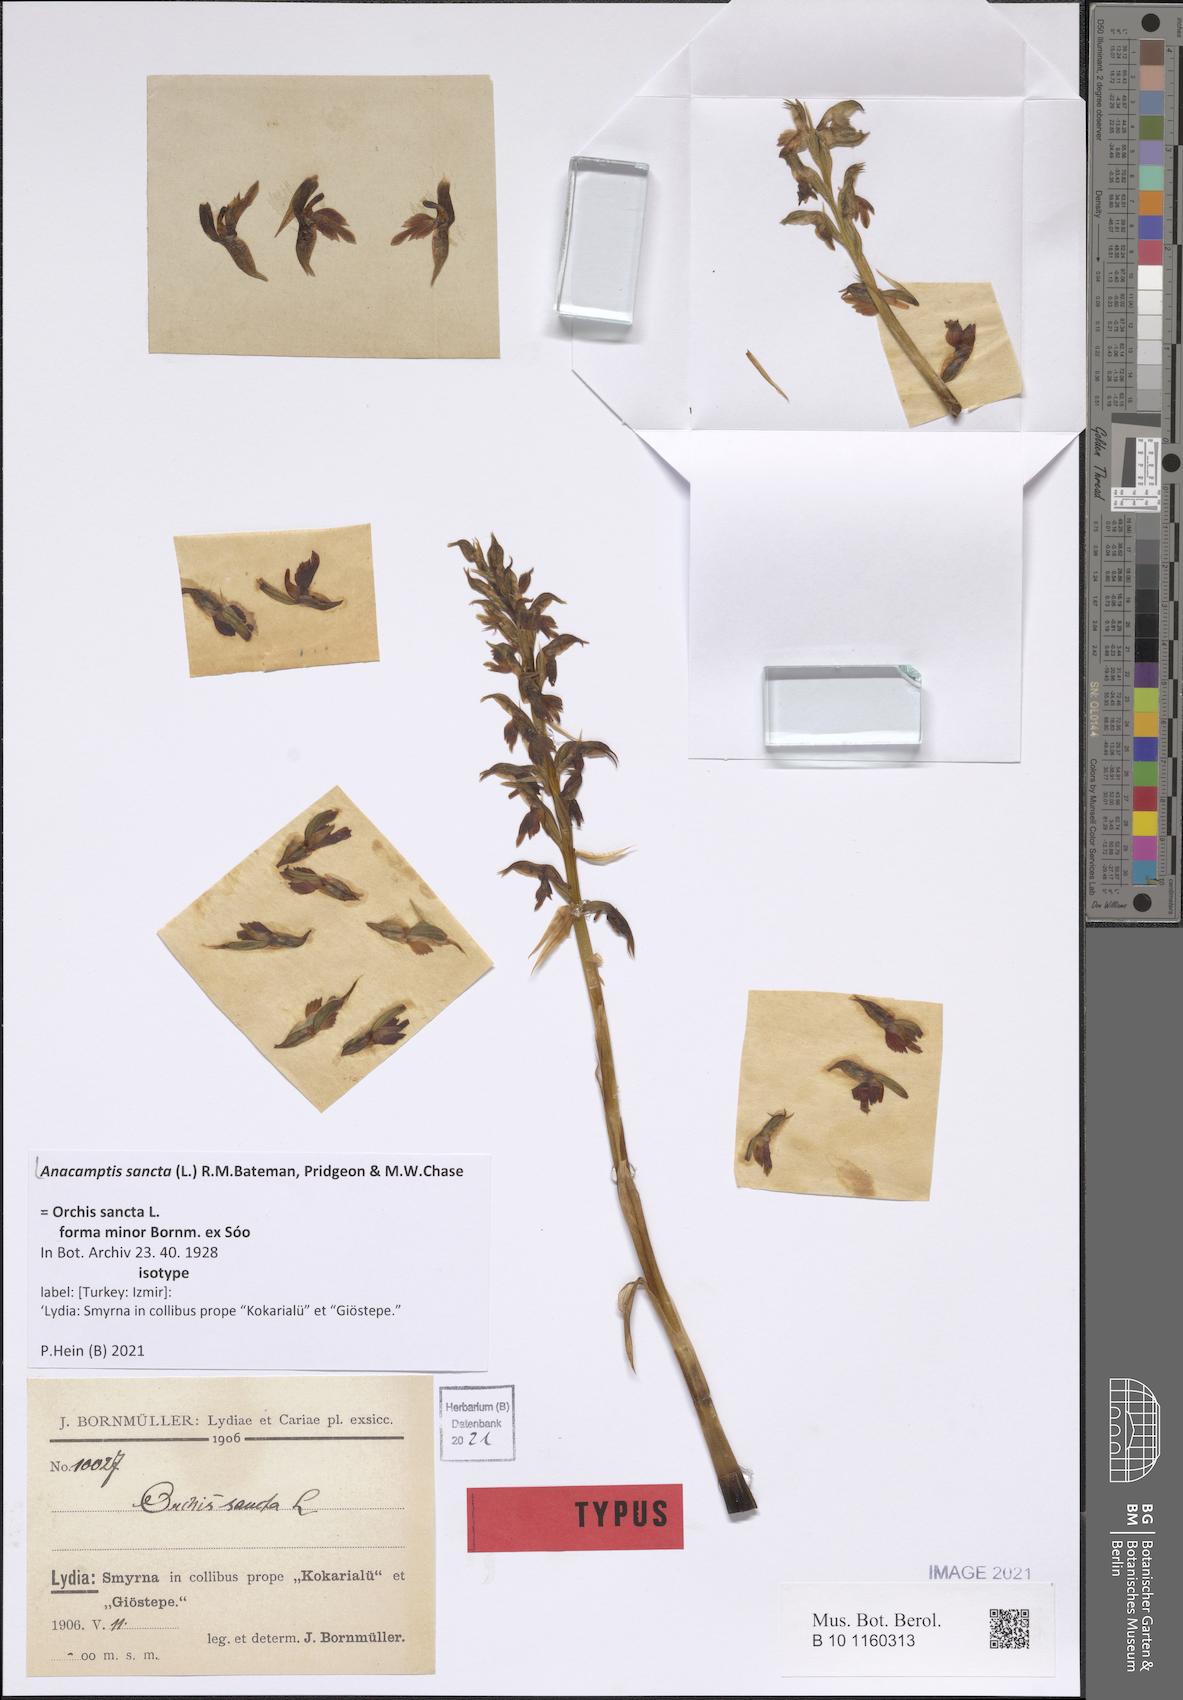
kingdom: Plantae
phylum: Tracheophyta
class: Liliopsida
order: Asparagales
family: Orchidaceae
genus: Anacamptis
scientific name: Anacamptis sancta
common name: Holy orchid
